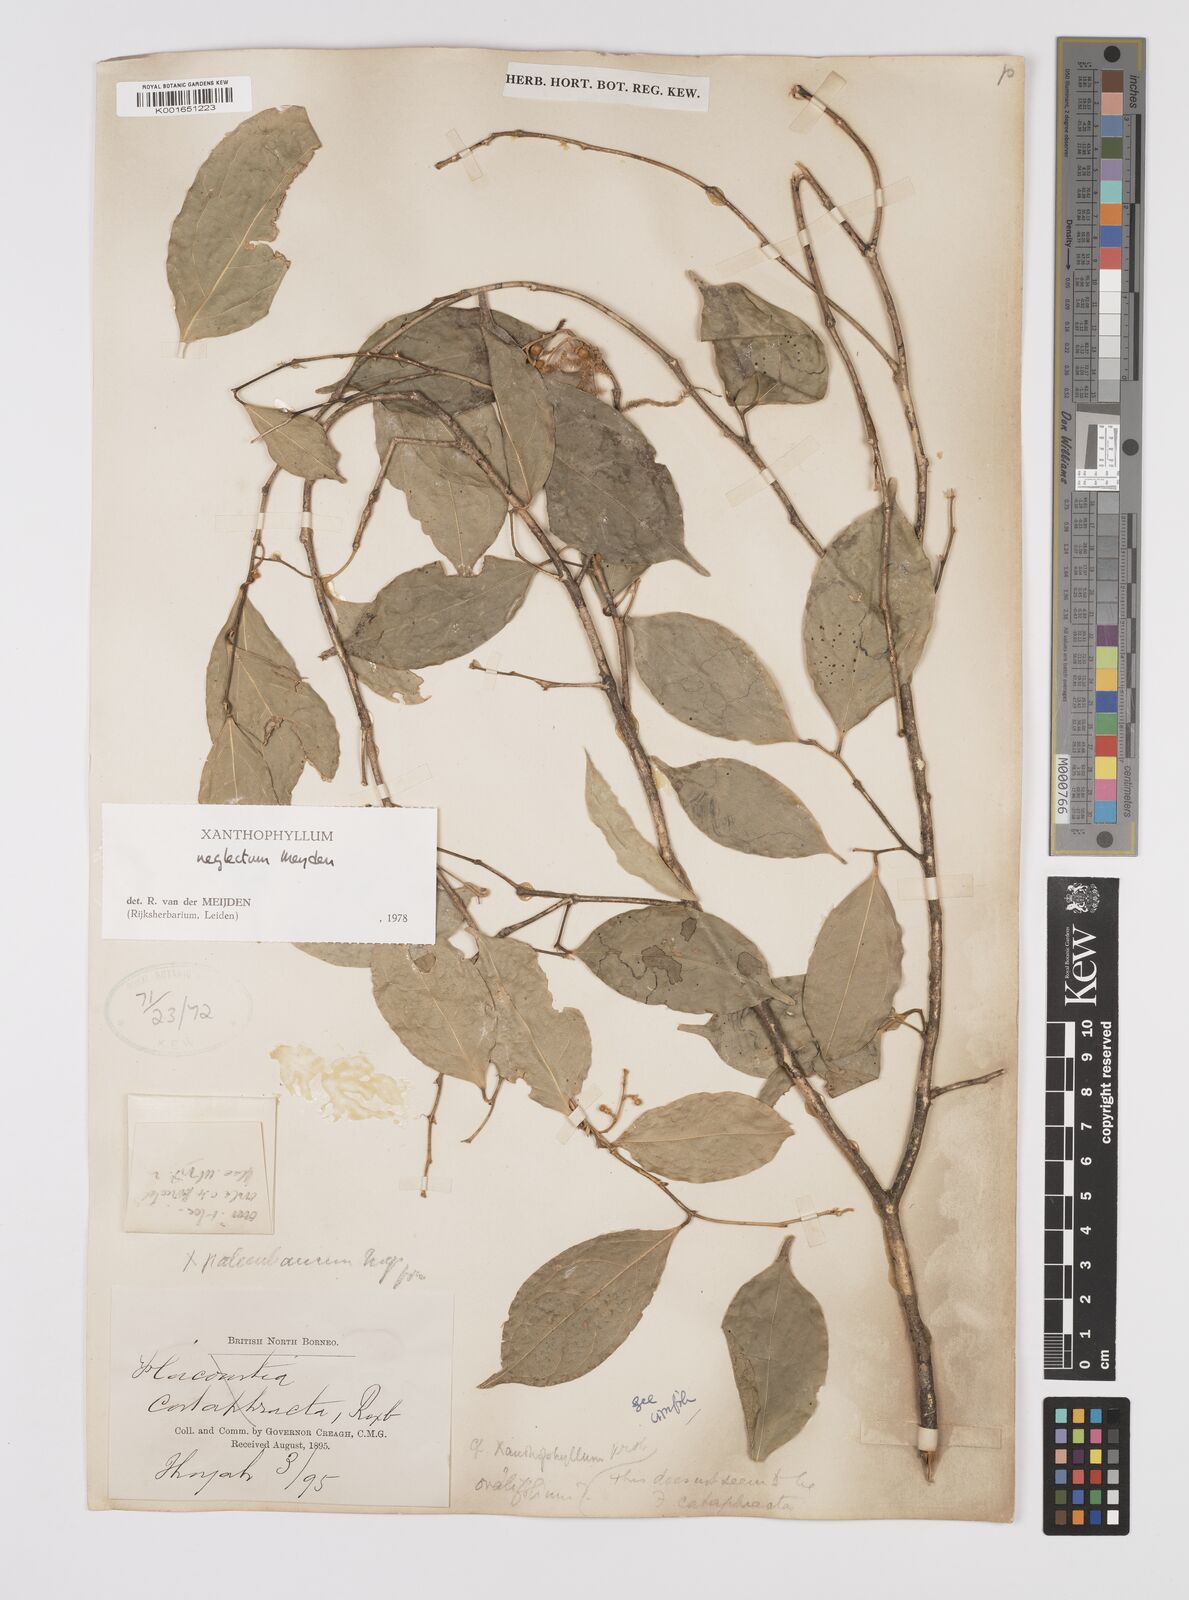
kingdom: Plantae
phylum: Tracheophyta
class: Magnoliopsida
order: Fabales
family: Polygalaceae
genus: Xanthophyllum
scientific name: Xanthophyllum neglectum
